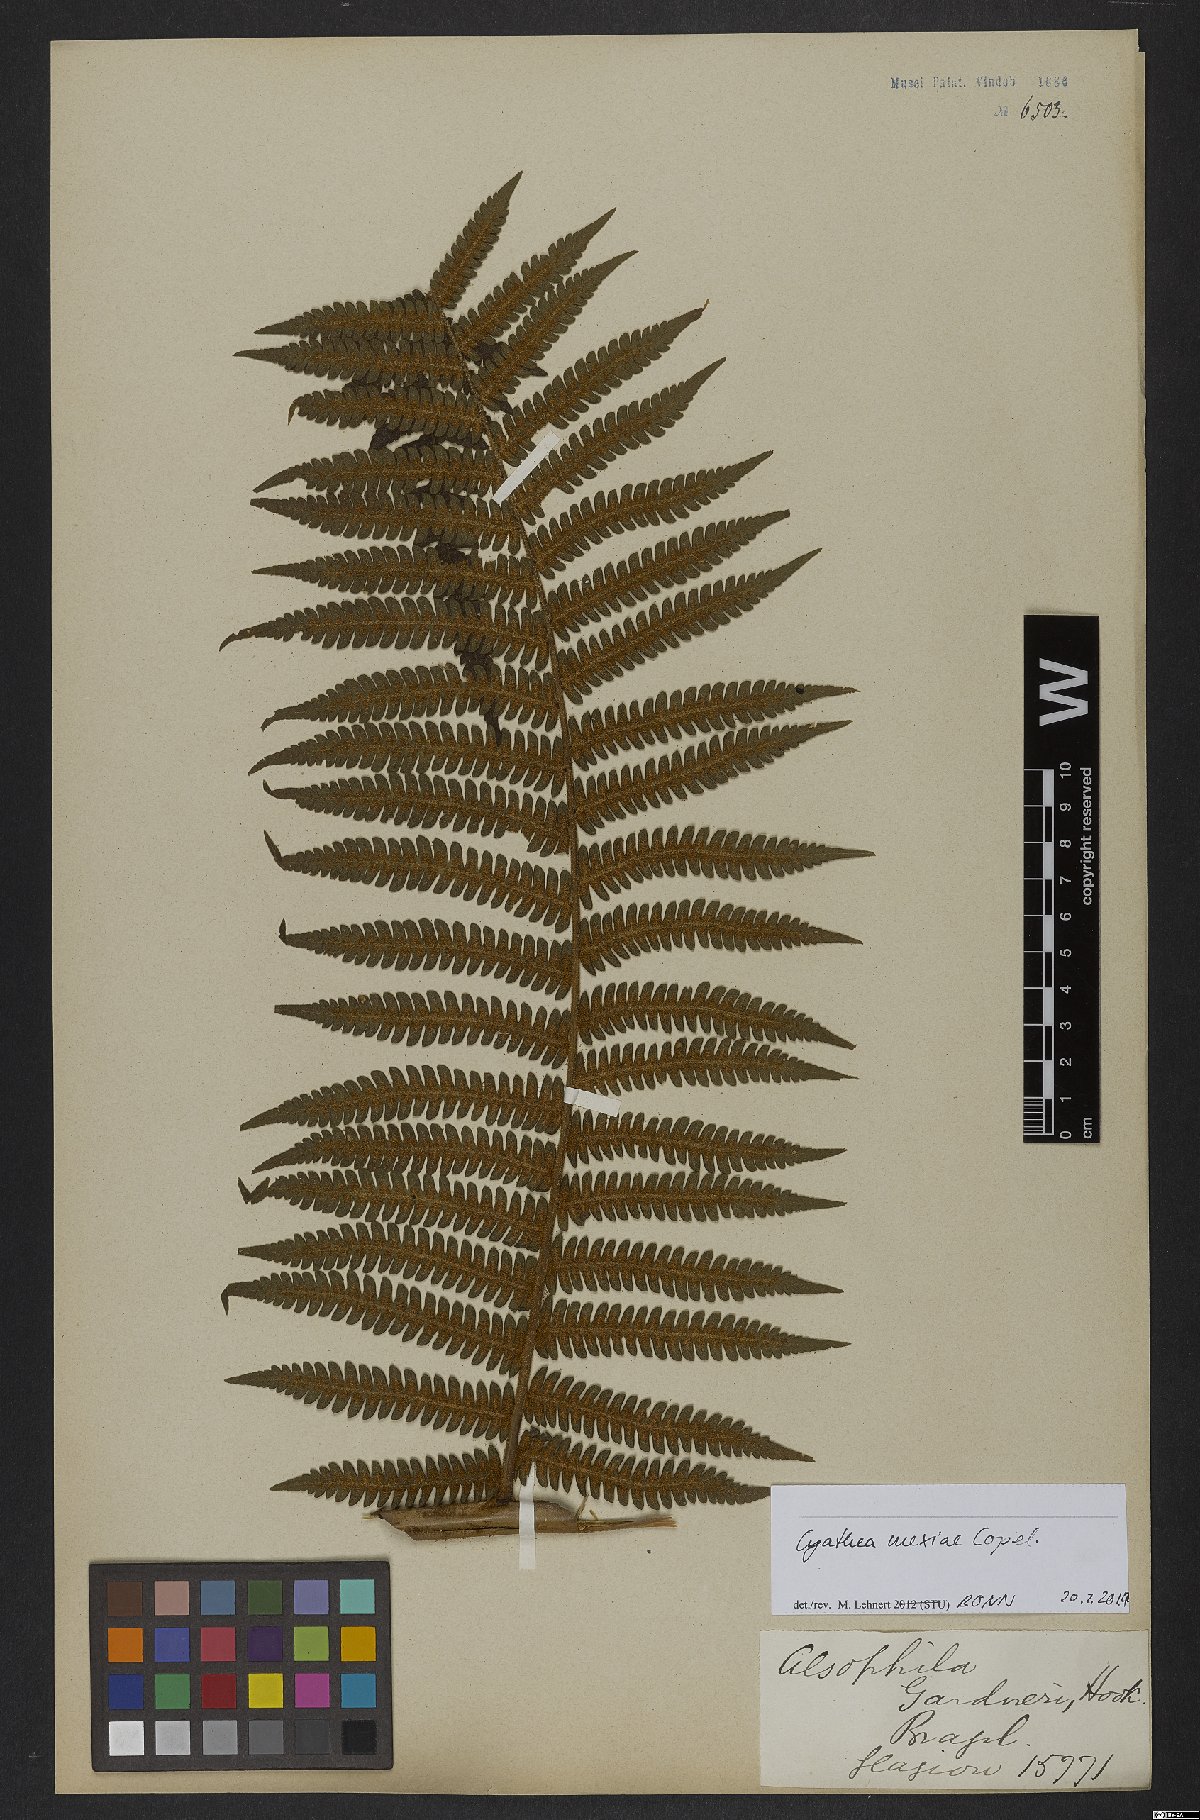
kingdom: Plantae
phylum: Tracheophyta
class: Polypodiopsida
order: Cyatheales
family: Cyatheaceae
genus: Cyathea
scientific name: Cyathea mexiae
